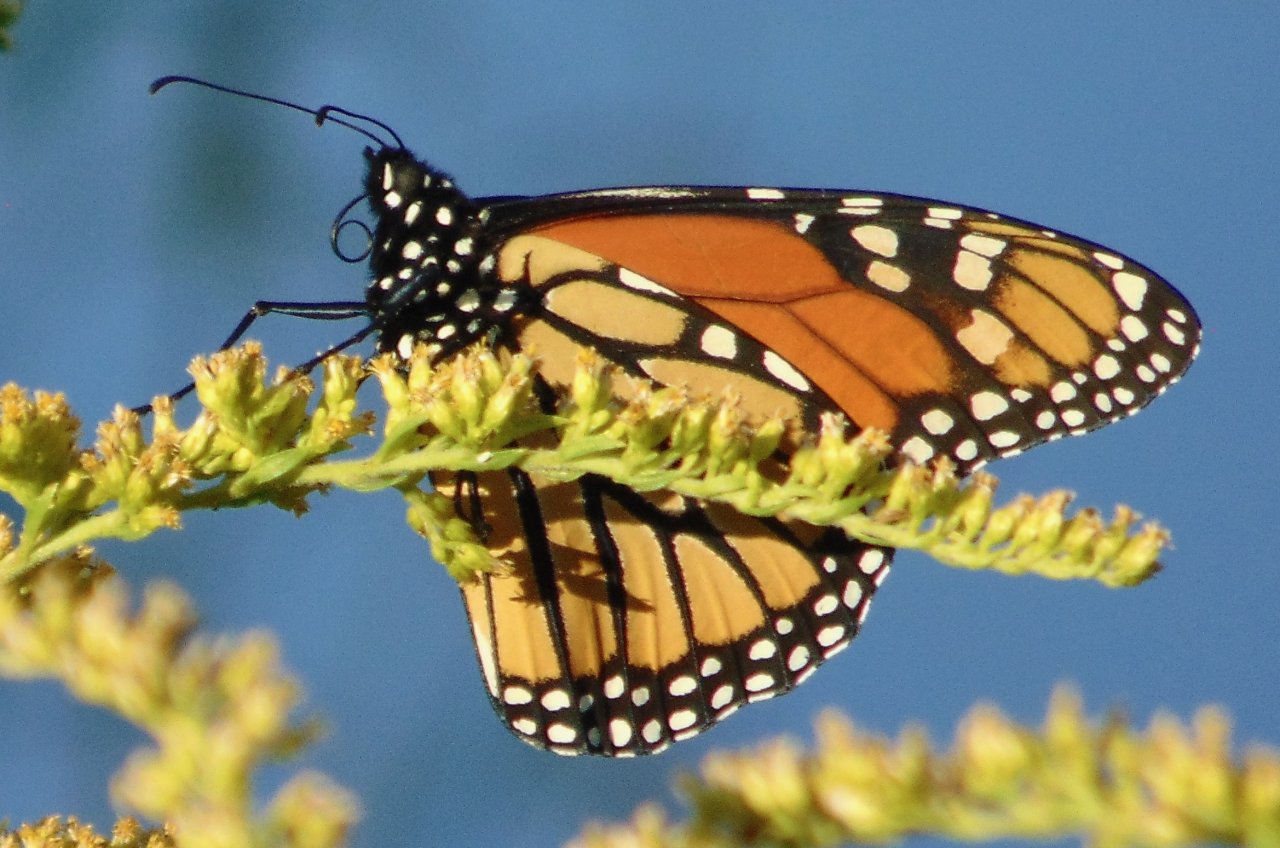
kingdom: Animalia
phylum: Arthropoda
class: Insecta
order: Lepidoptera
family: Nymphalidae
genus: Danaus
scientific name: Danaus plexippus
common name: Monarch
